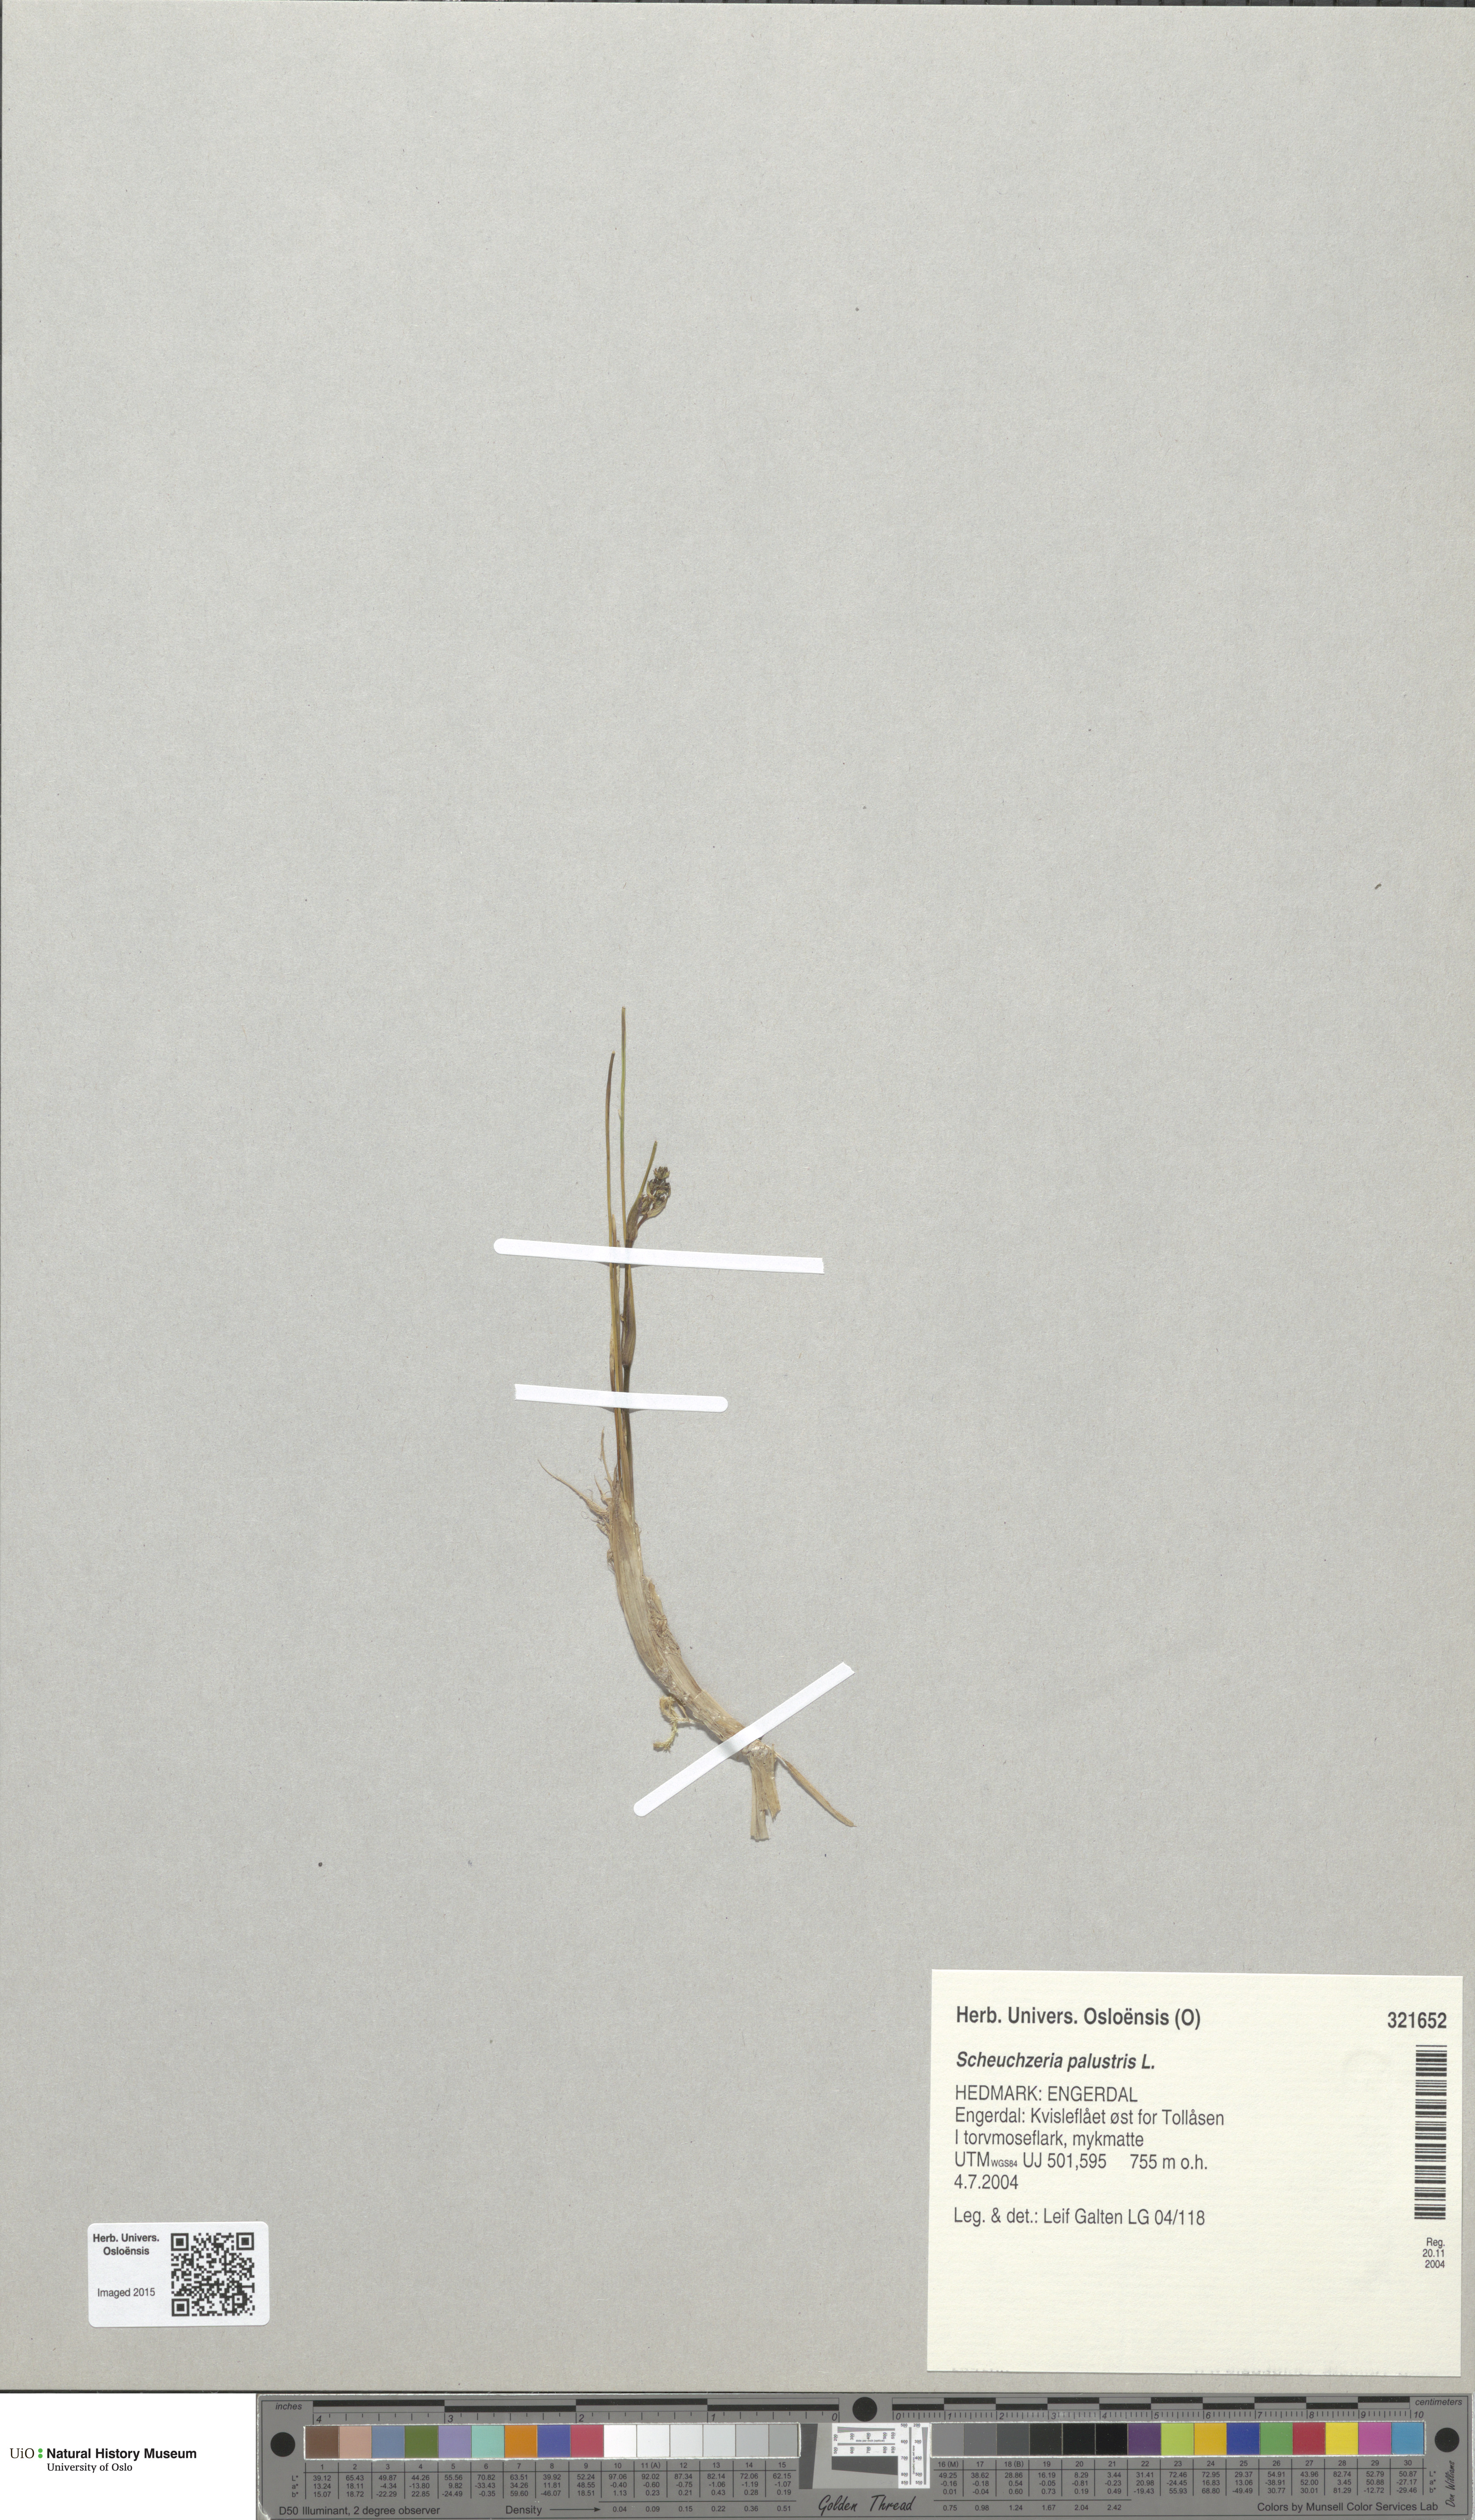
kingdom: Plantae
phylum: Tracheophyta
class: Liliopsida
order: Alismatales
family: Scheuchzeriaceae
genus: Scheuchzeria
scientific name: Scheuchzeria palustris
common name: Rannoch-rush
